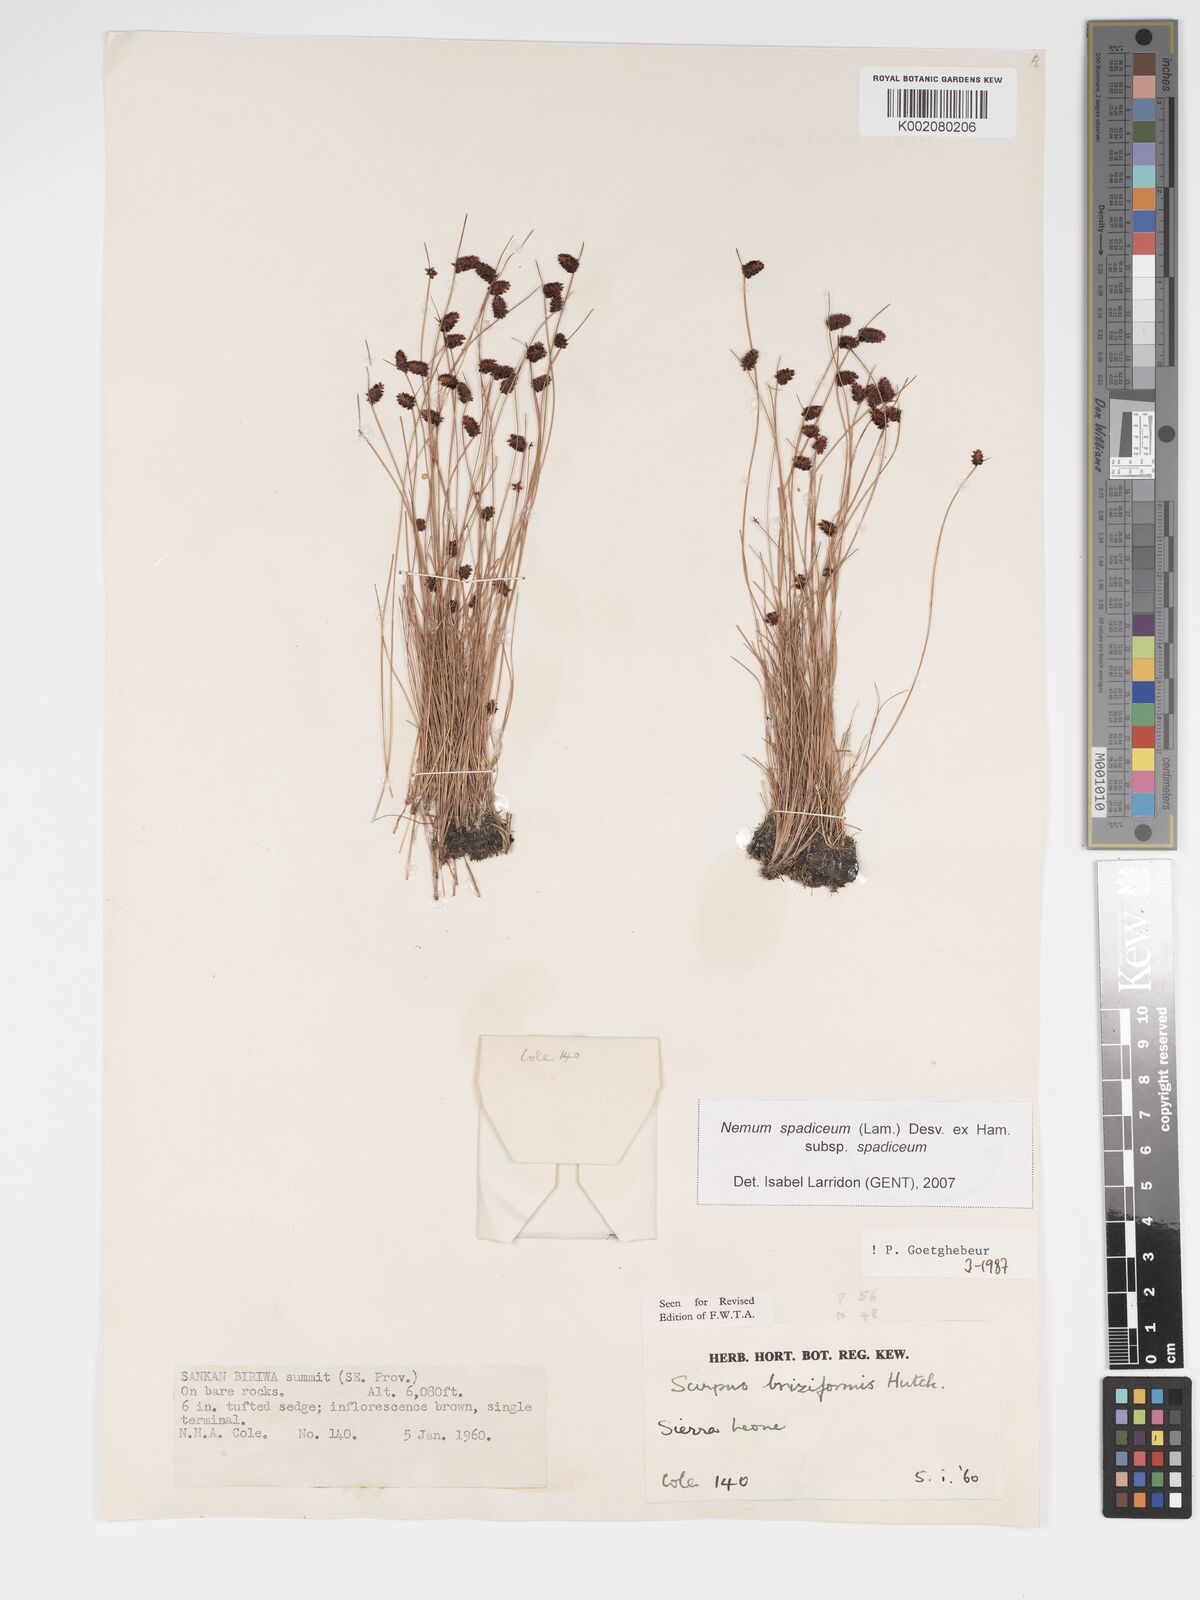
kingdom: Plantae
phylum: Tracheophyta
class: Liliopsida
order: Poales
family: Cyperaceae
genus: Bulbostylis
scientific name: Bulbostylis briziformis
